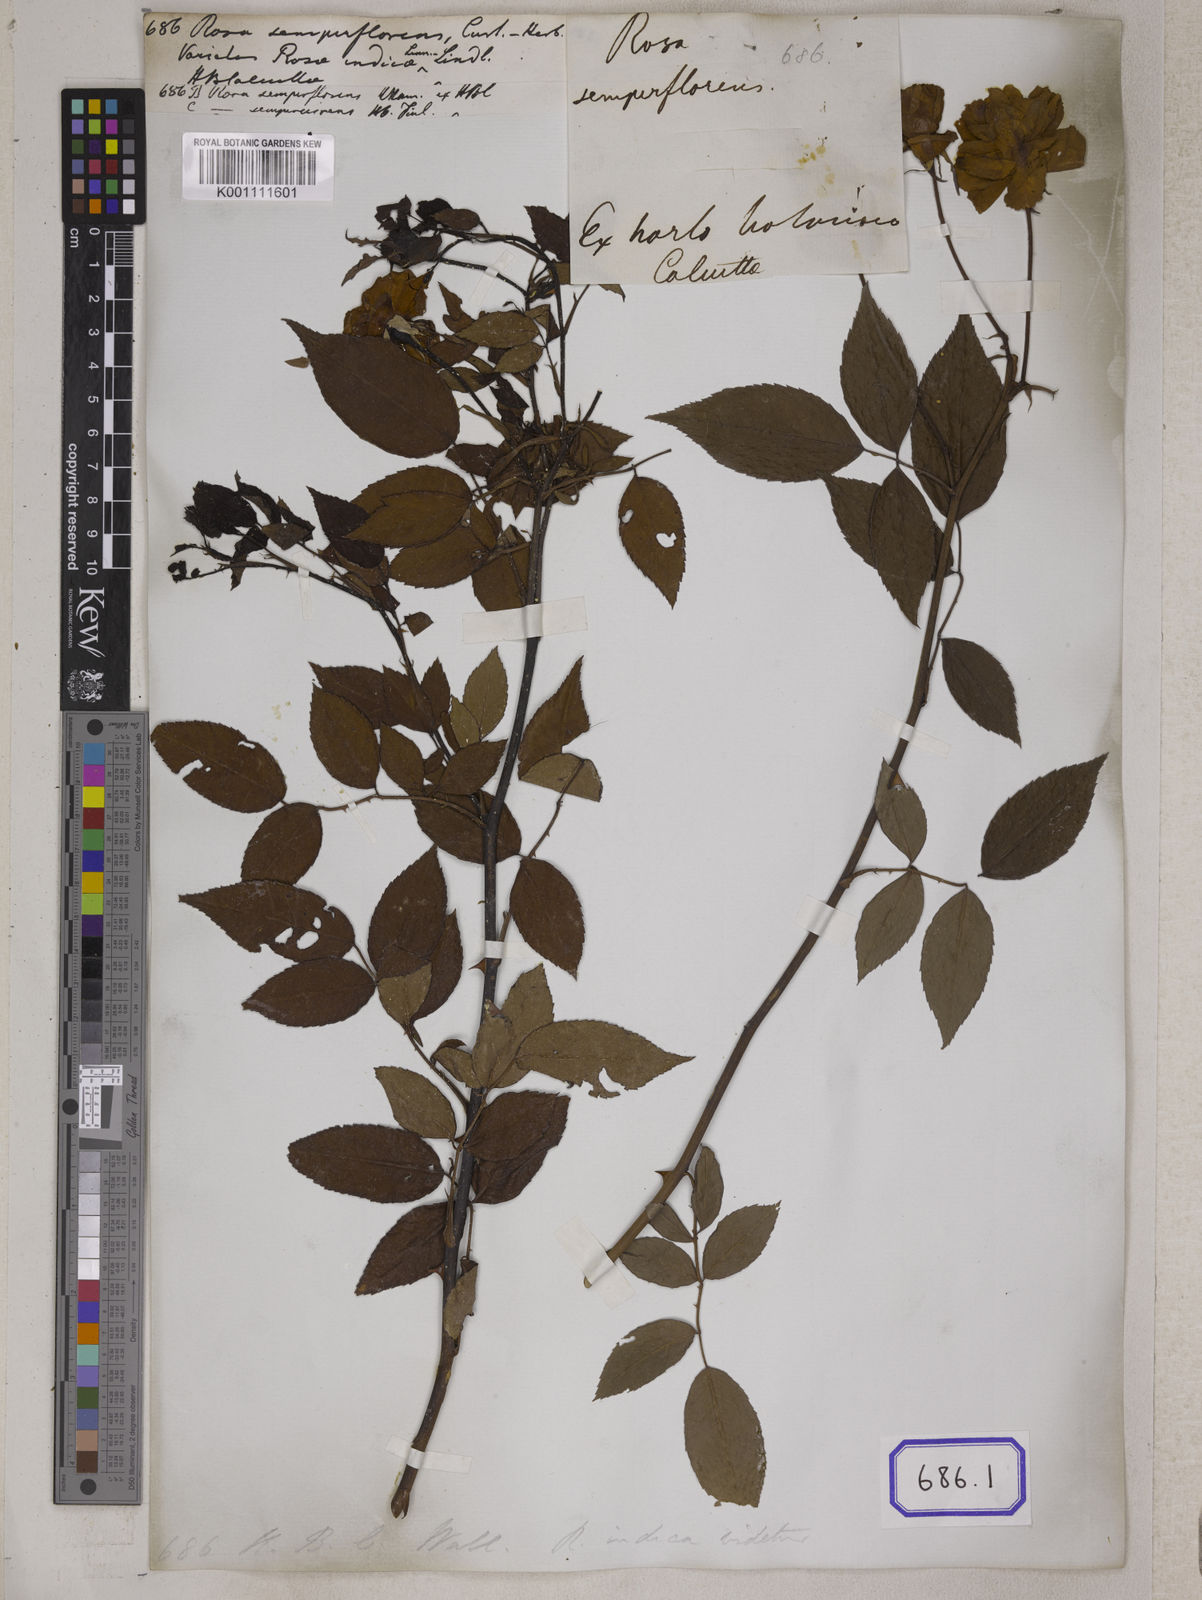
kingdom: Plantae
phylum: Tracheophyta
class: Magnoliopsida
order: Rosales
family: Rosaceae
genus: Rosa
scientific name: Rosa chinensis
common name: China rose
